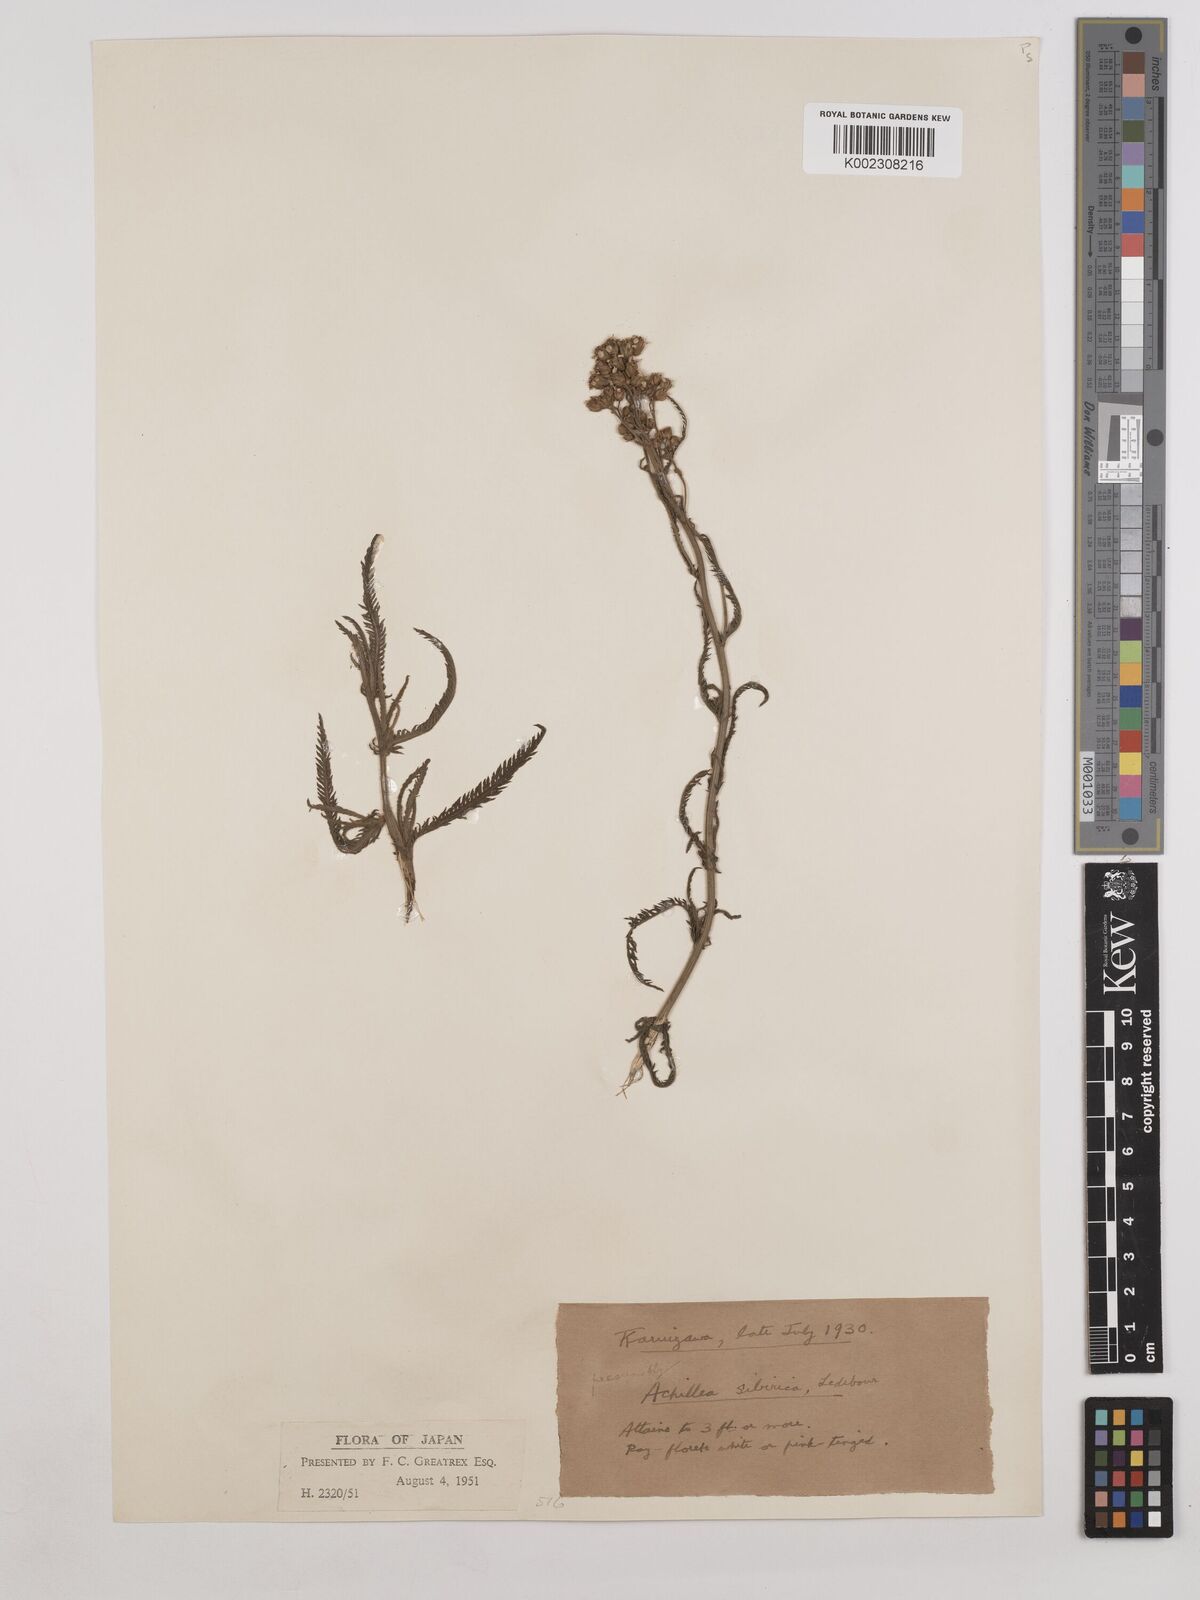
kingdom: Plantae
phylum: Tracheophyta
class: Magnoliopsida
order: Asterales
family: Asteraceae
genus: Achillea
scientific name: Achillea alpina
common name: Siberian yarrow
